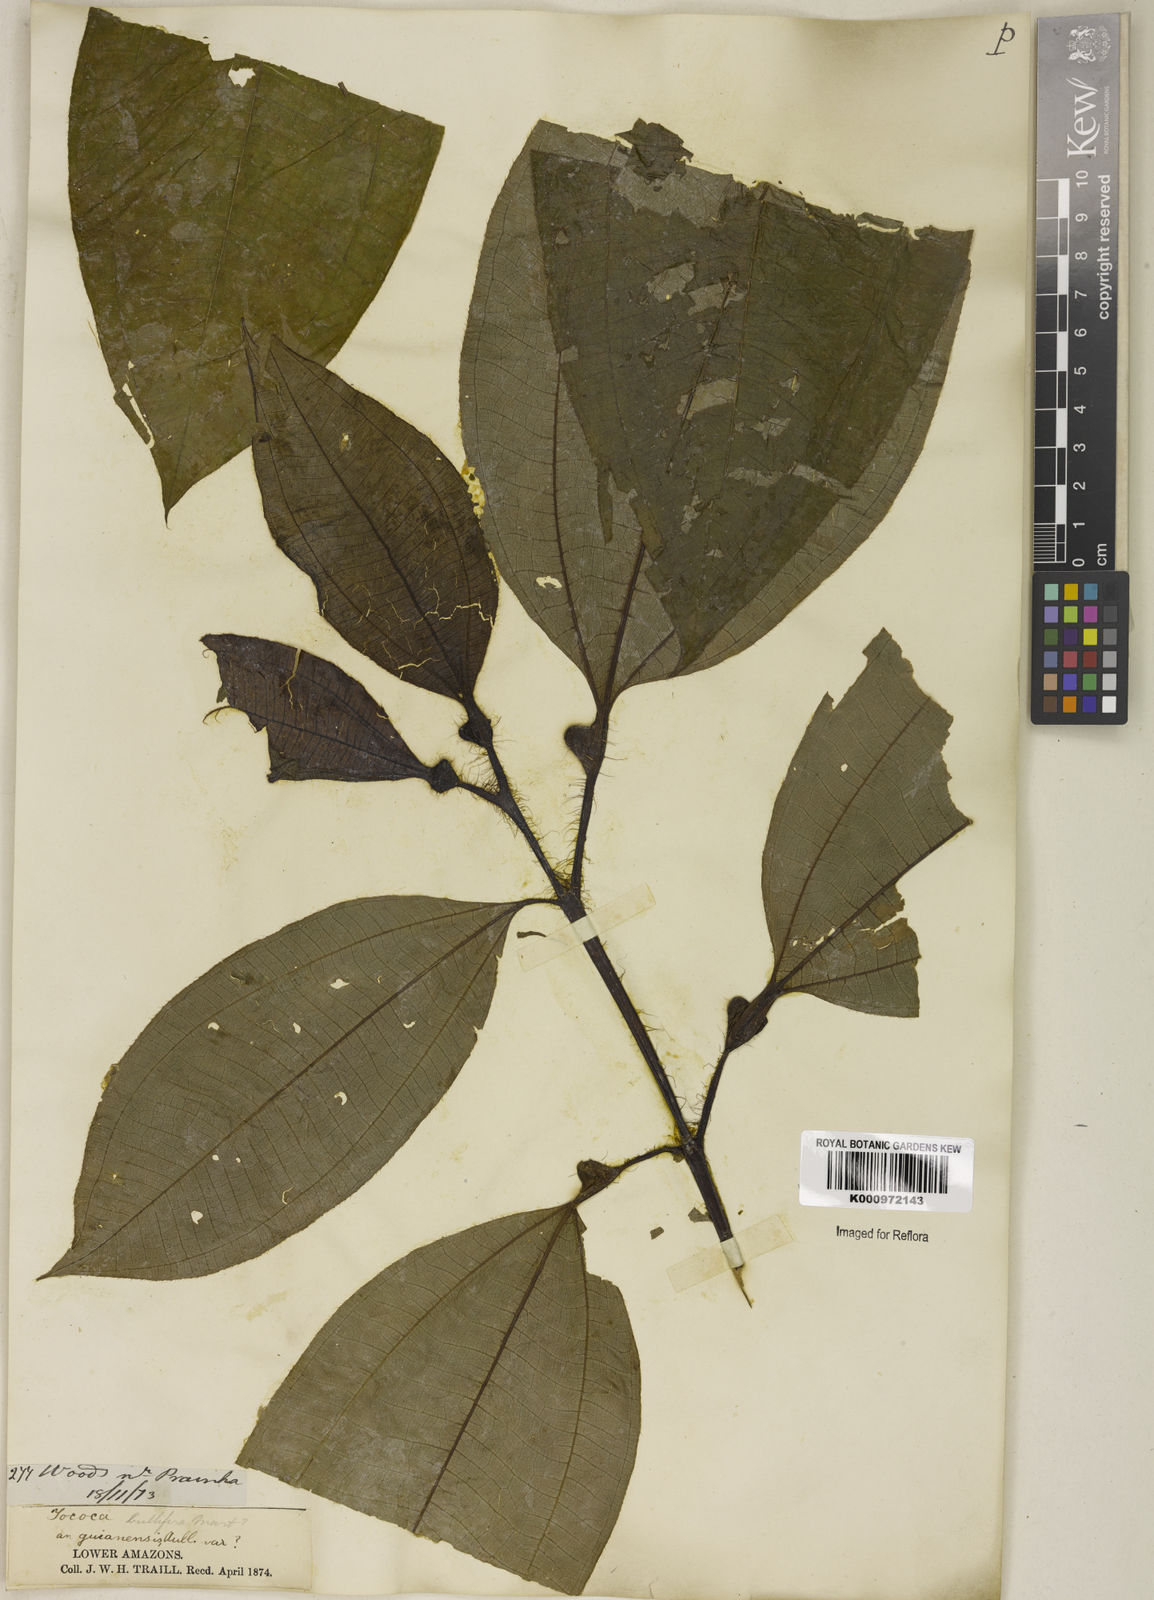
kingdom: Plantae
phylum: Tracheophyta
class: Magnoliopsida
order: Myrtales
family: Melastomataceae
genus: Miconia
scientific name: Miconia bullifera
